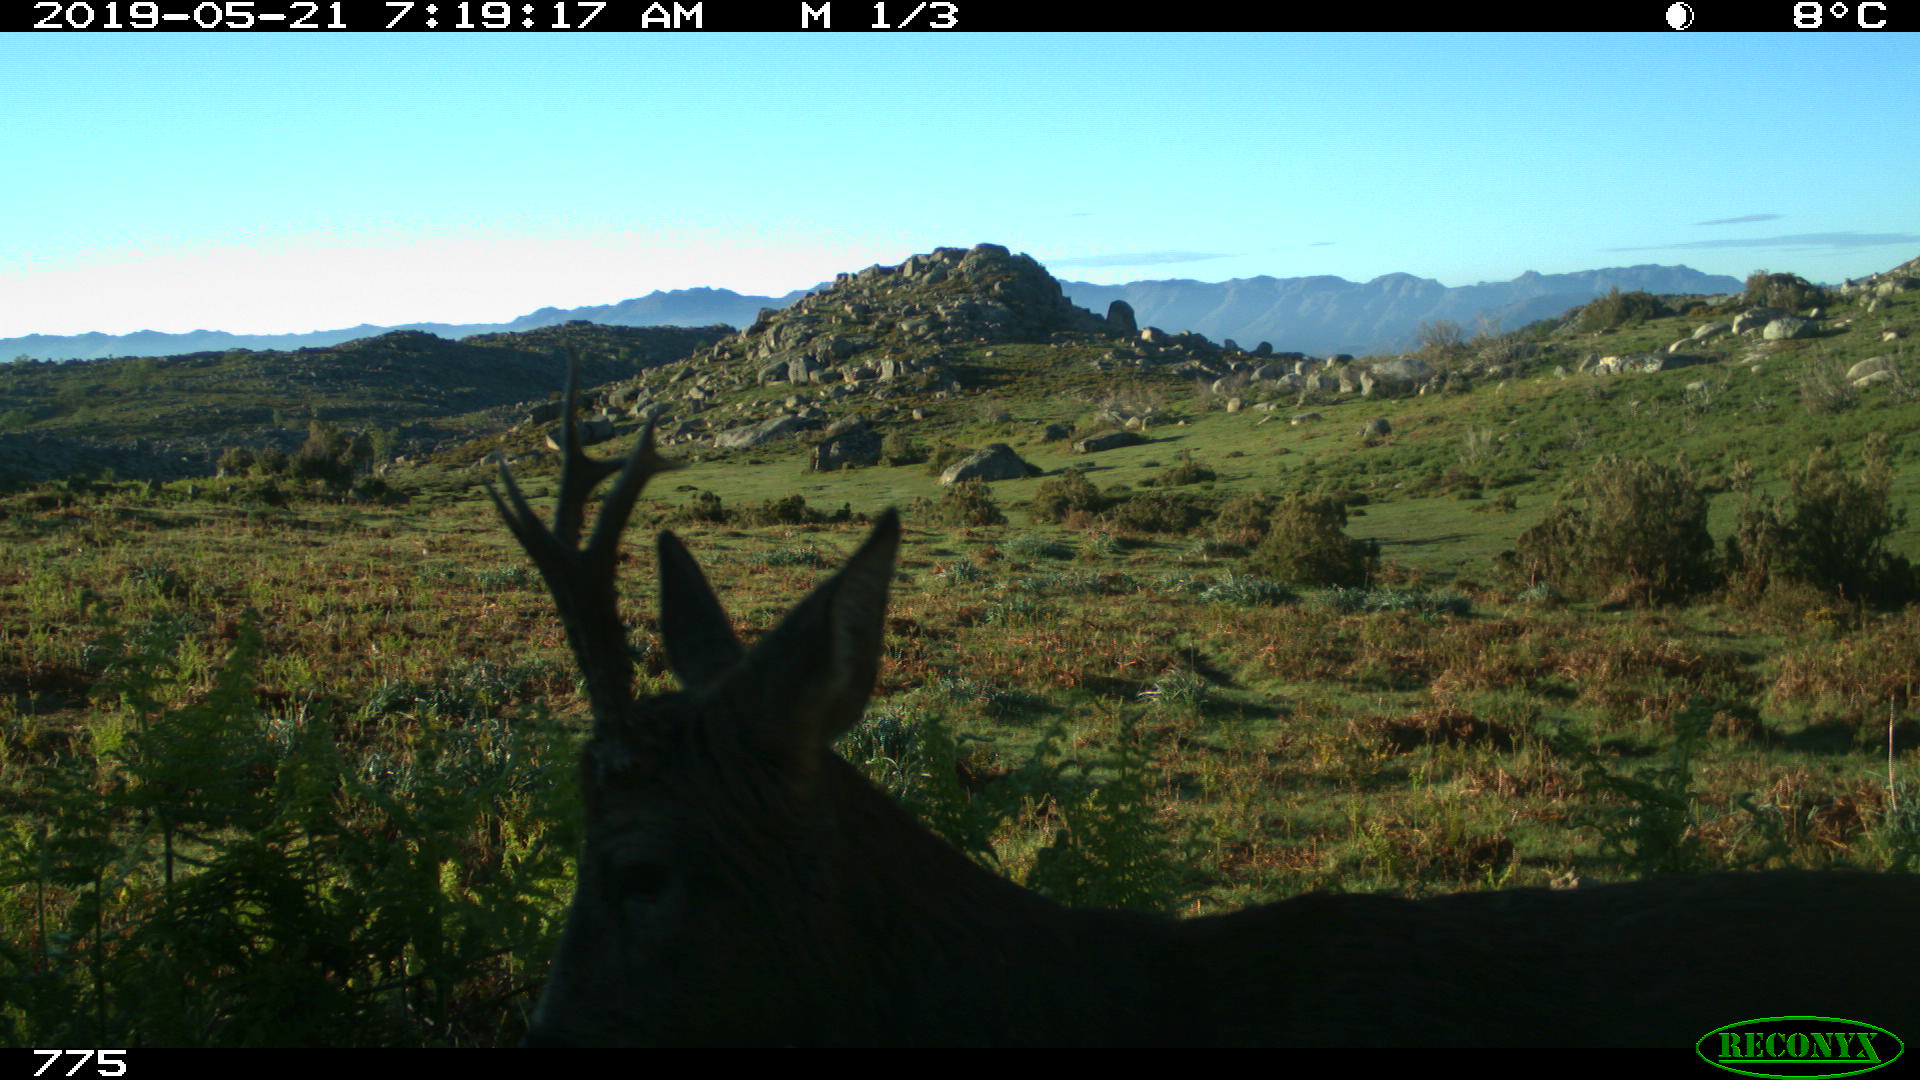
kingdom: Animalia
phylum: Chordata
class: Mammalia
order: Artiodactyla
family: Cervidae
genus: Capreolus
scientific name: Capreolus capreolus
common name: Western roe deer
